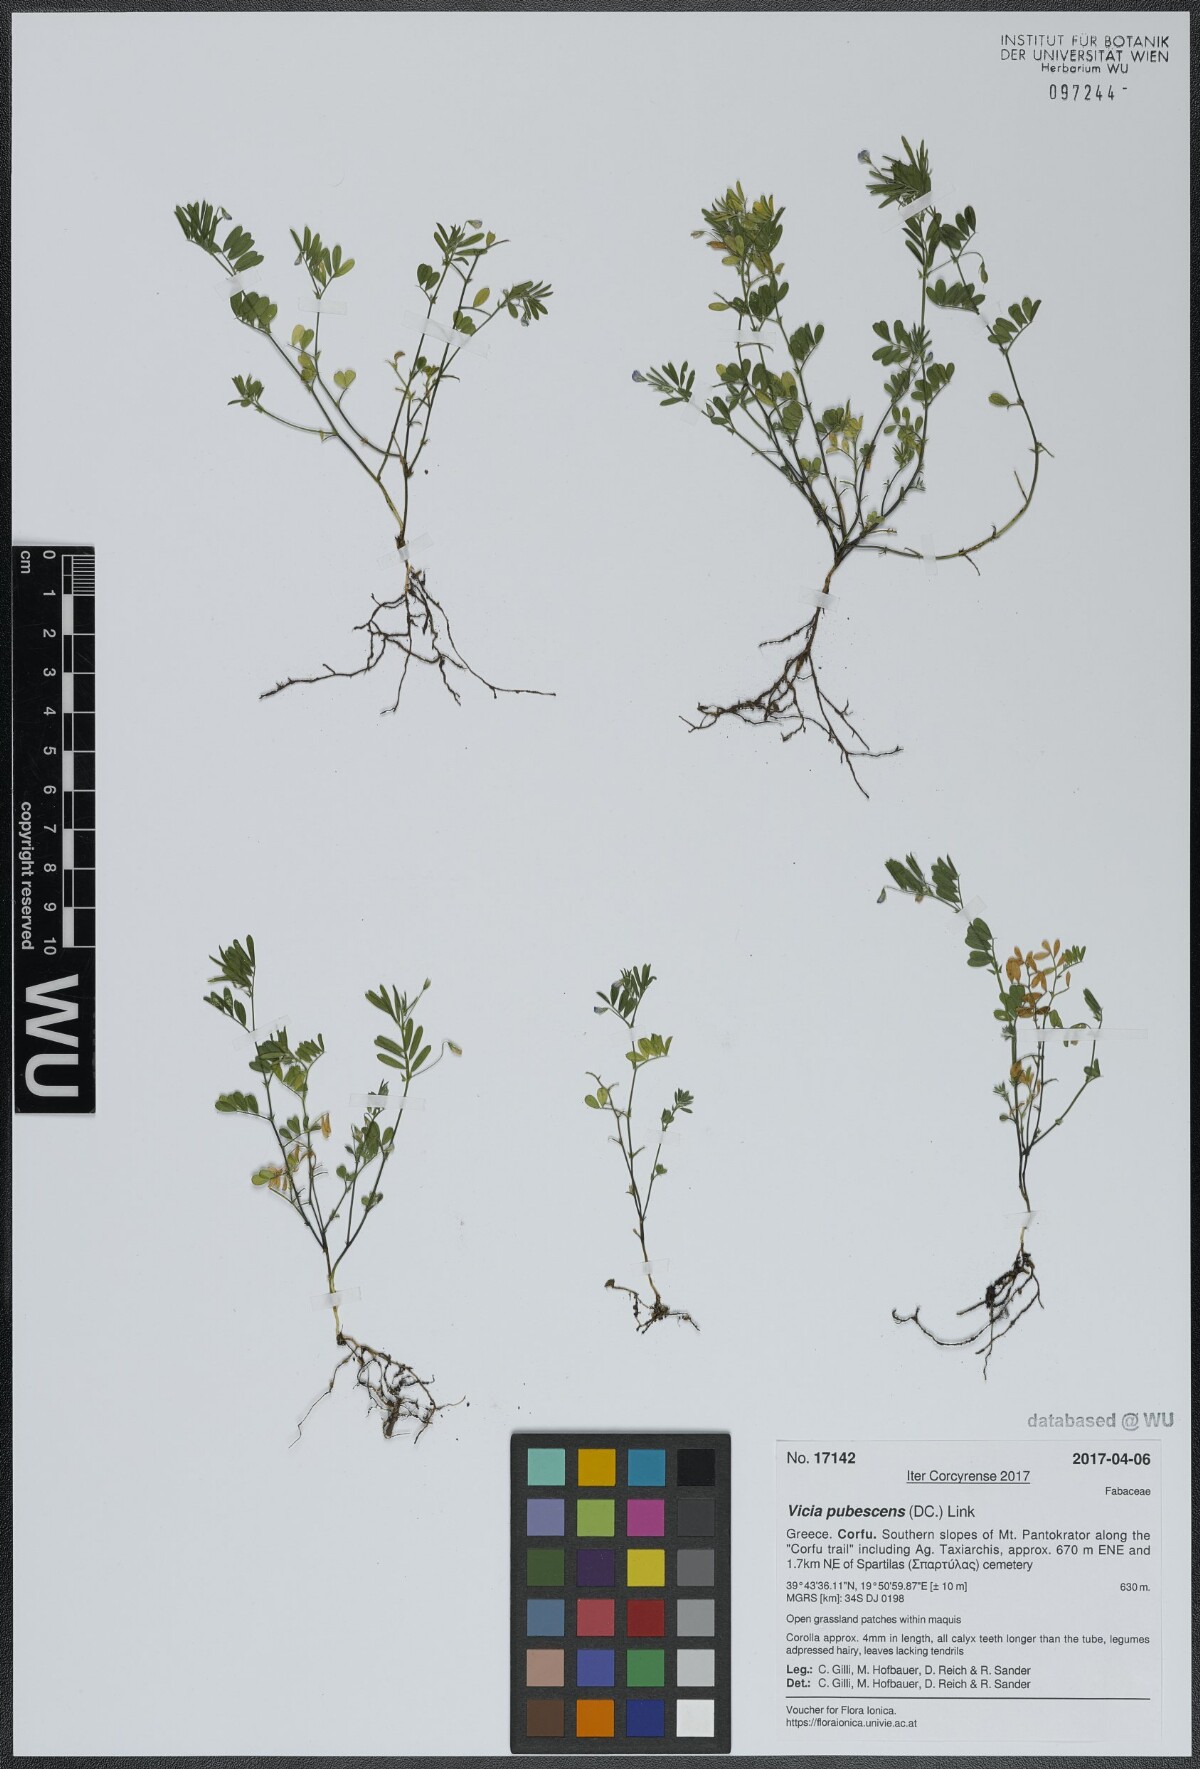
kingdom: Plantae
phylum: Tracheophyta
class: Magnoliopsida
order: Fabales
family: Fabaceae
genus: Vicia
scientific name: Vicia pubescens
